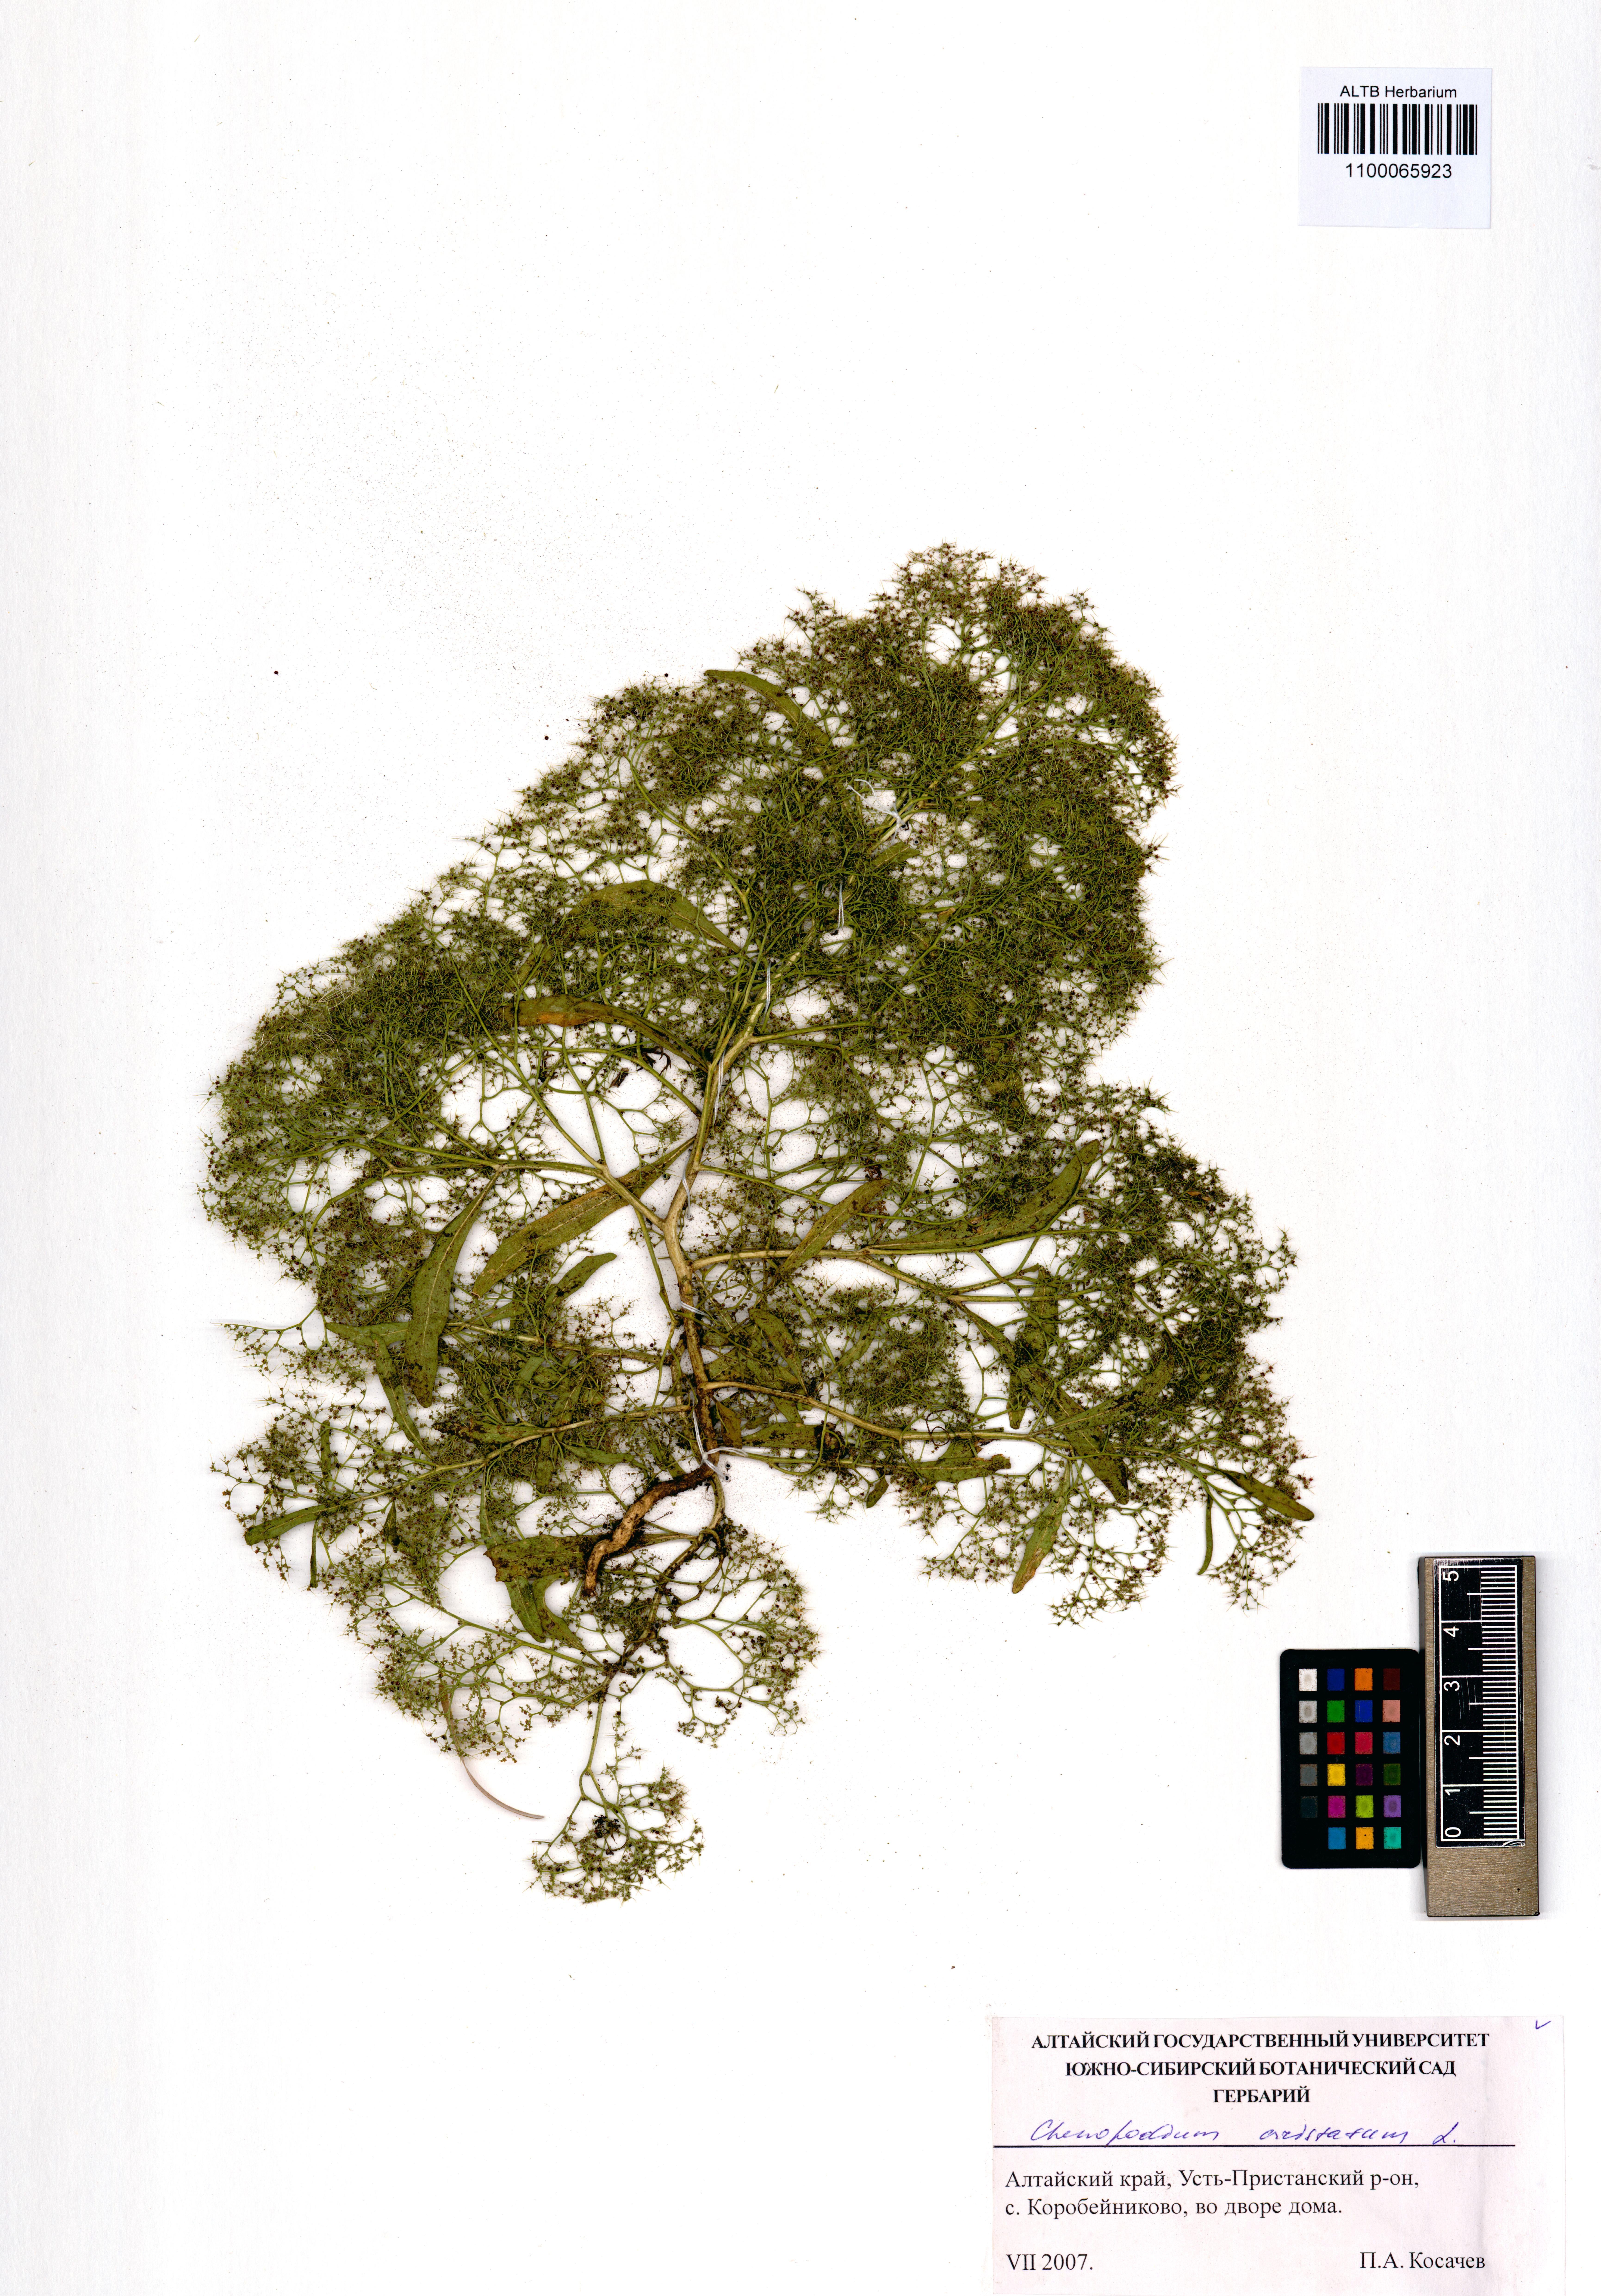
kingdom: Plantae
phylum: Tracheophyta
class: Magnoliopsida
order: Caryophyllales
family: Amaranthaceae
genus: Teloxys
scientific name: Teloxys aristata
